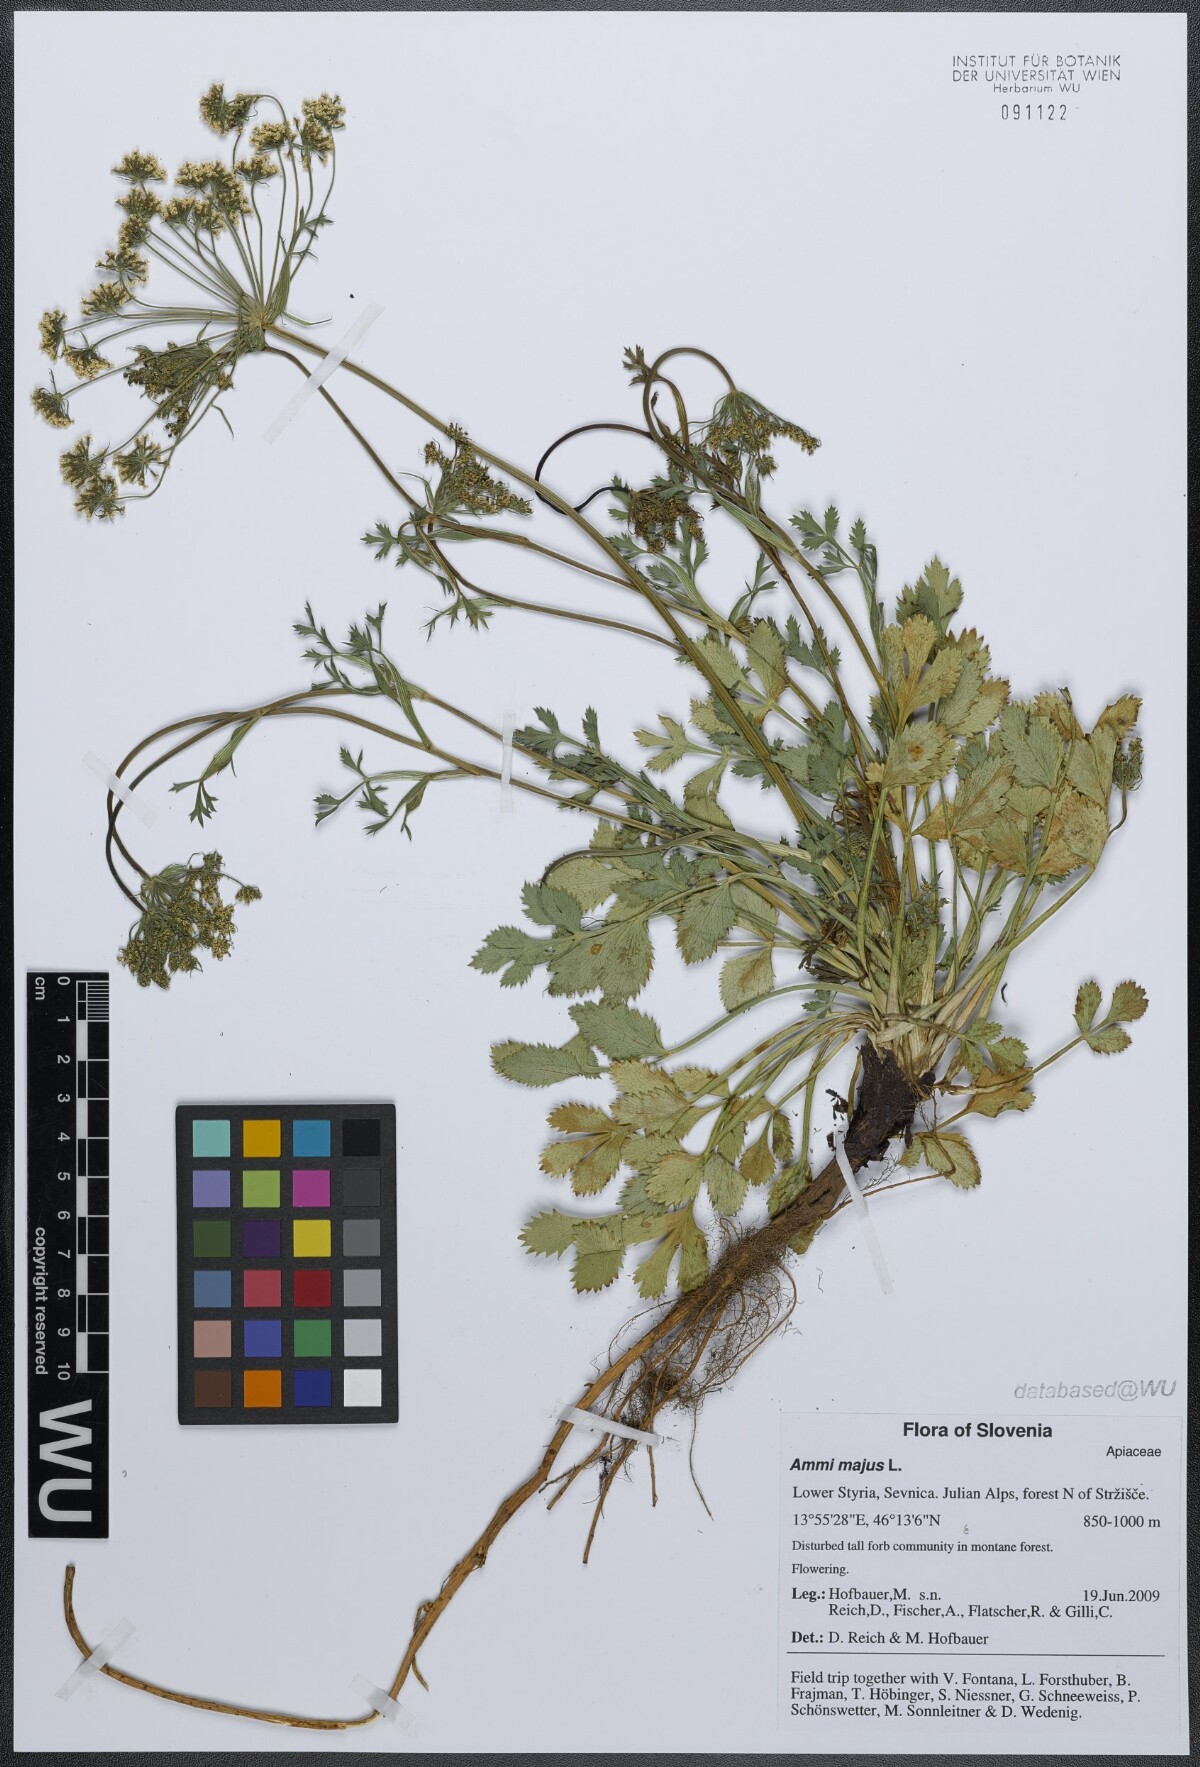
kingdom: Plantae
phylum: Tracheophyta
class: Magnoliopsida
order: Apiales
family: Apiaceae
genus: Ammi
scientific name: Ammi majus
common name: Bullwort
